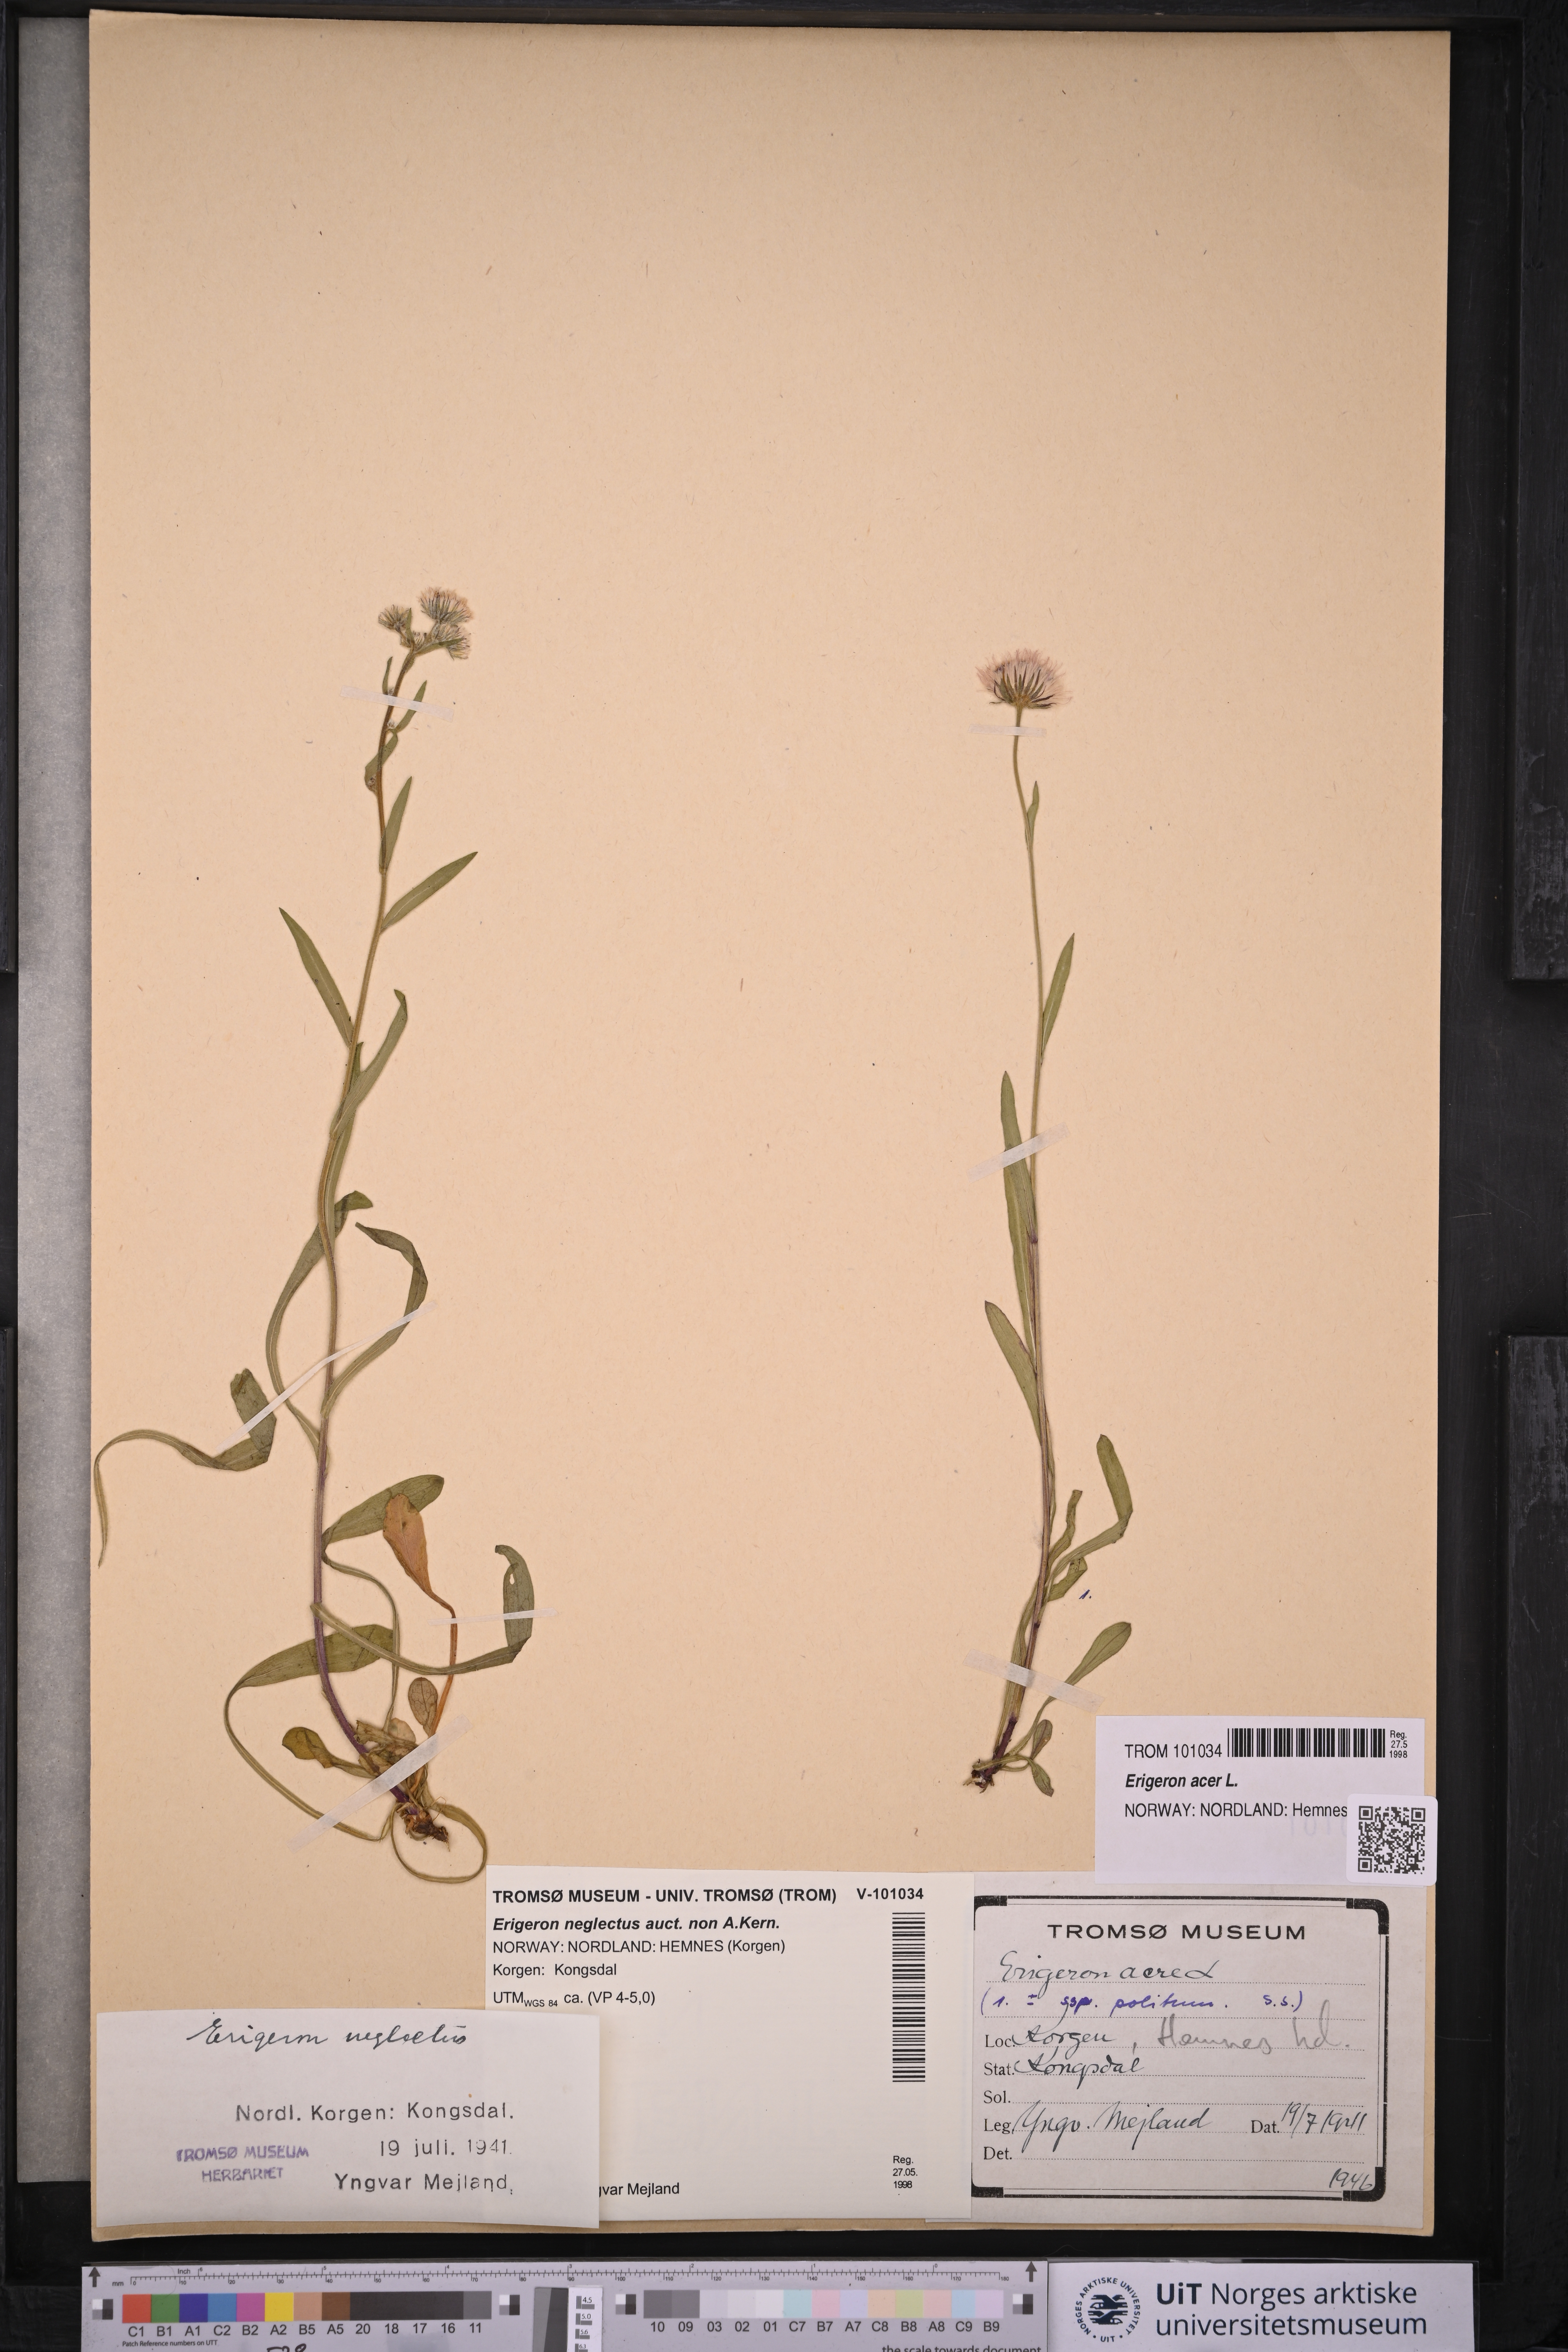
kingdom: Plantae
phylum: Tracheophyta
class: Magnoliopsida
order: Asterales
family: Asteraceae
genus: Erigeron
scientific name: Erigeron acris
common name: Blue fleabane
